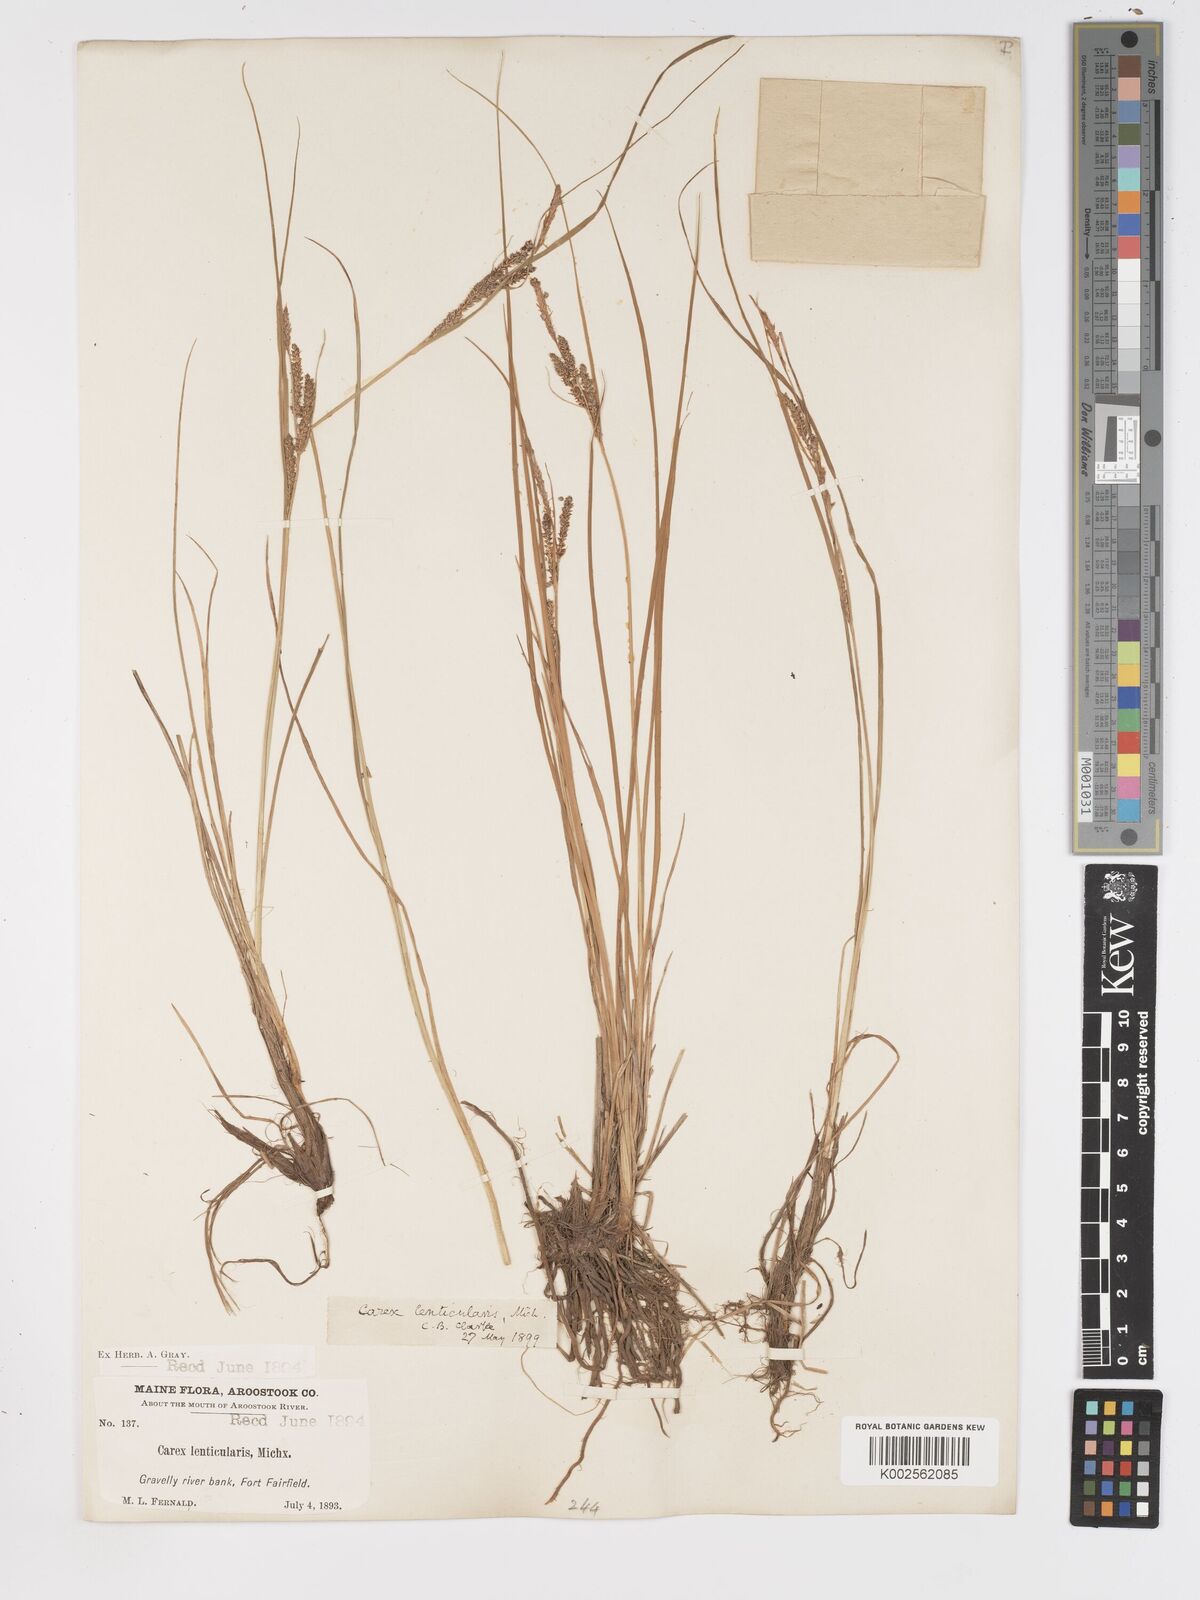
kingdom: Plantae
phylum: Tracheophyta
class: Liliopsida
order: Poales
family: Cyperaceae
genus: Carex
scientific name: Carex lenticularis
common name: Lakeshore sedge
